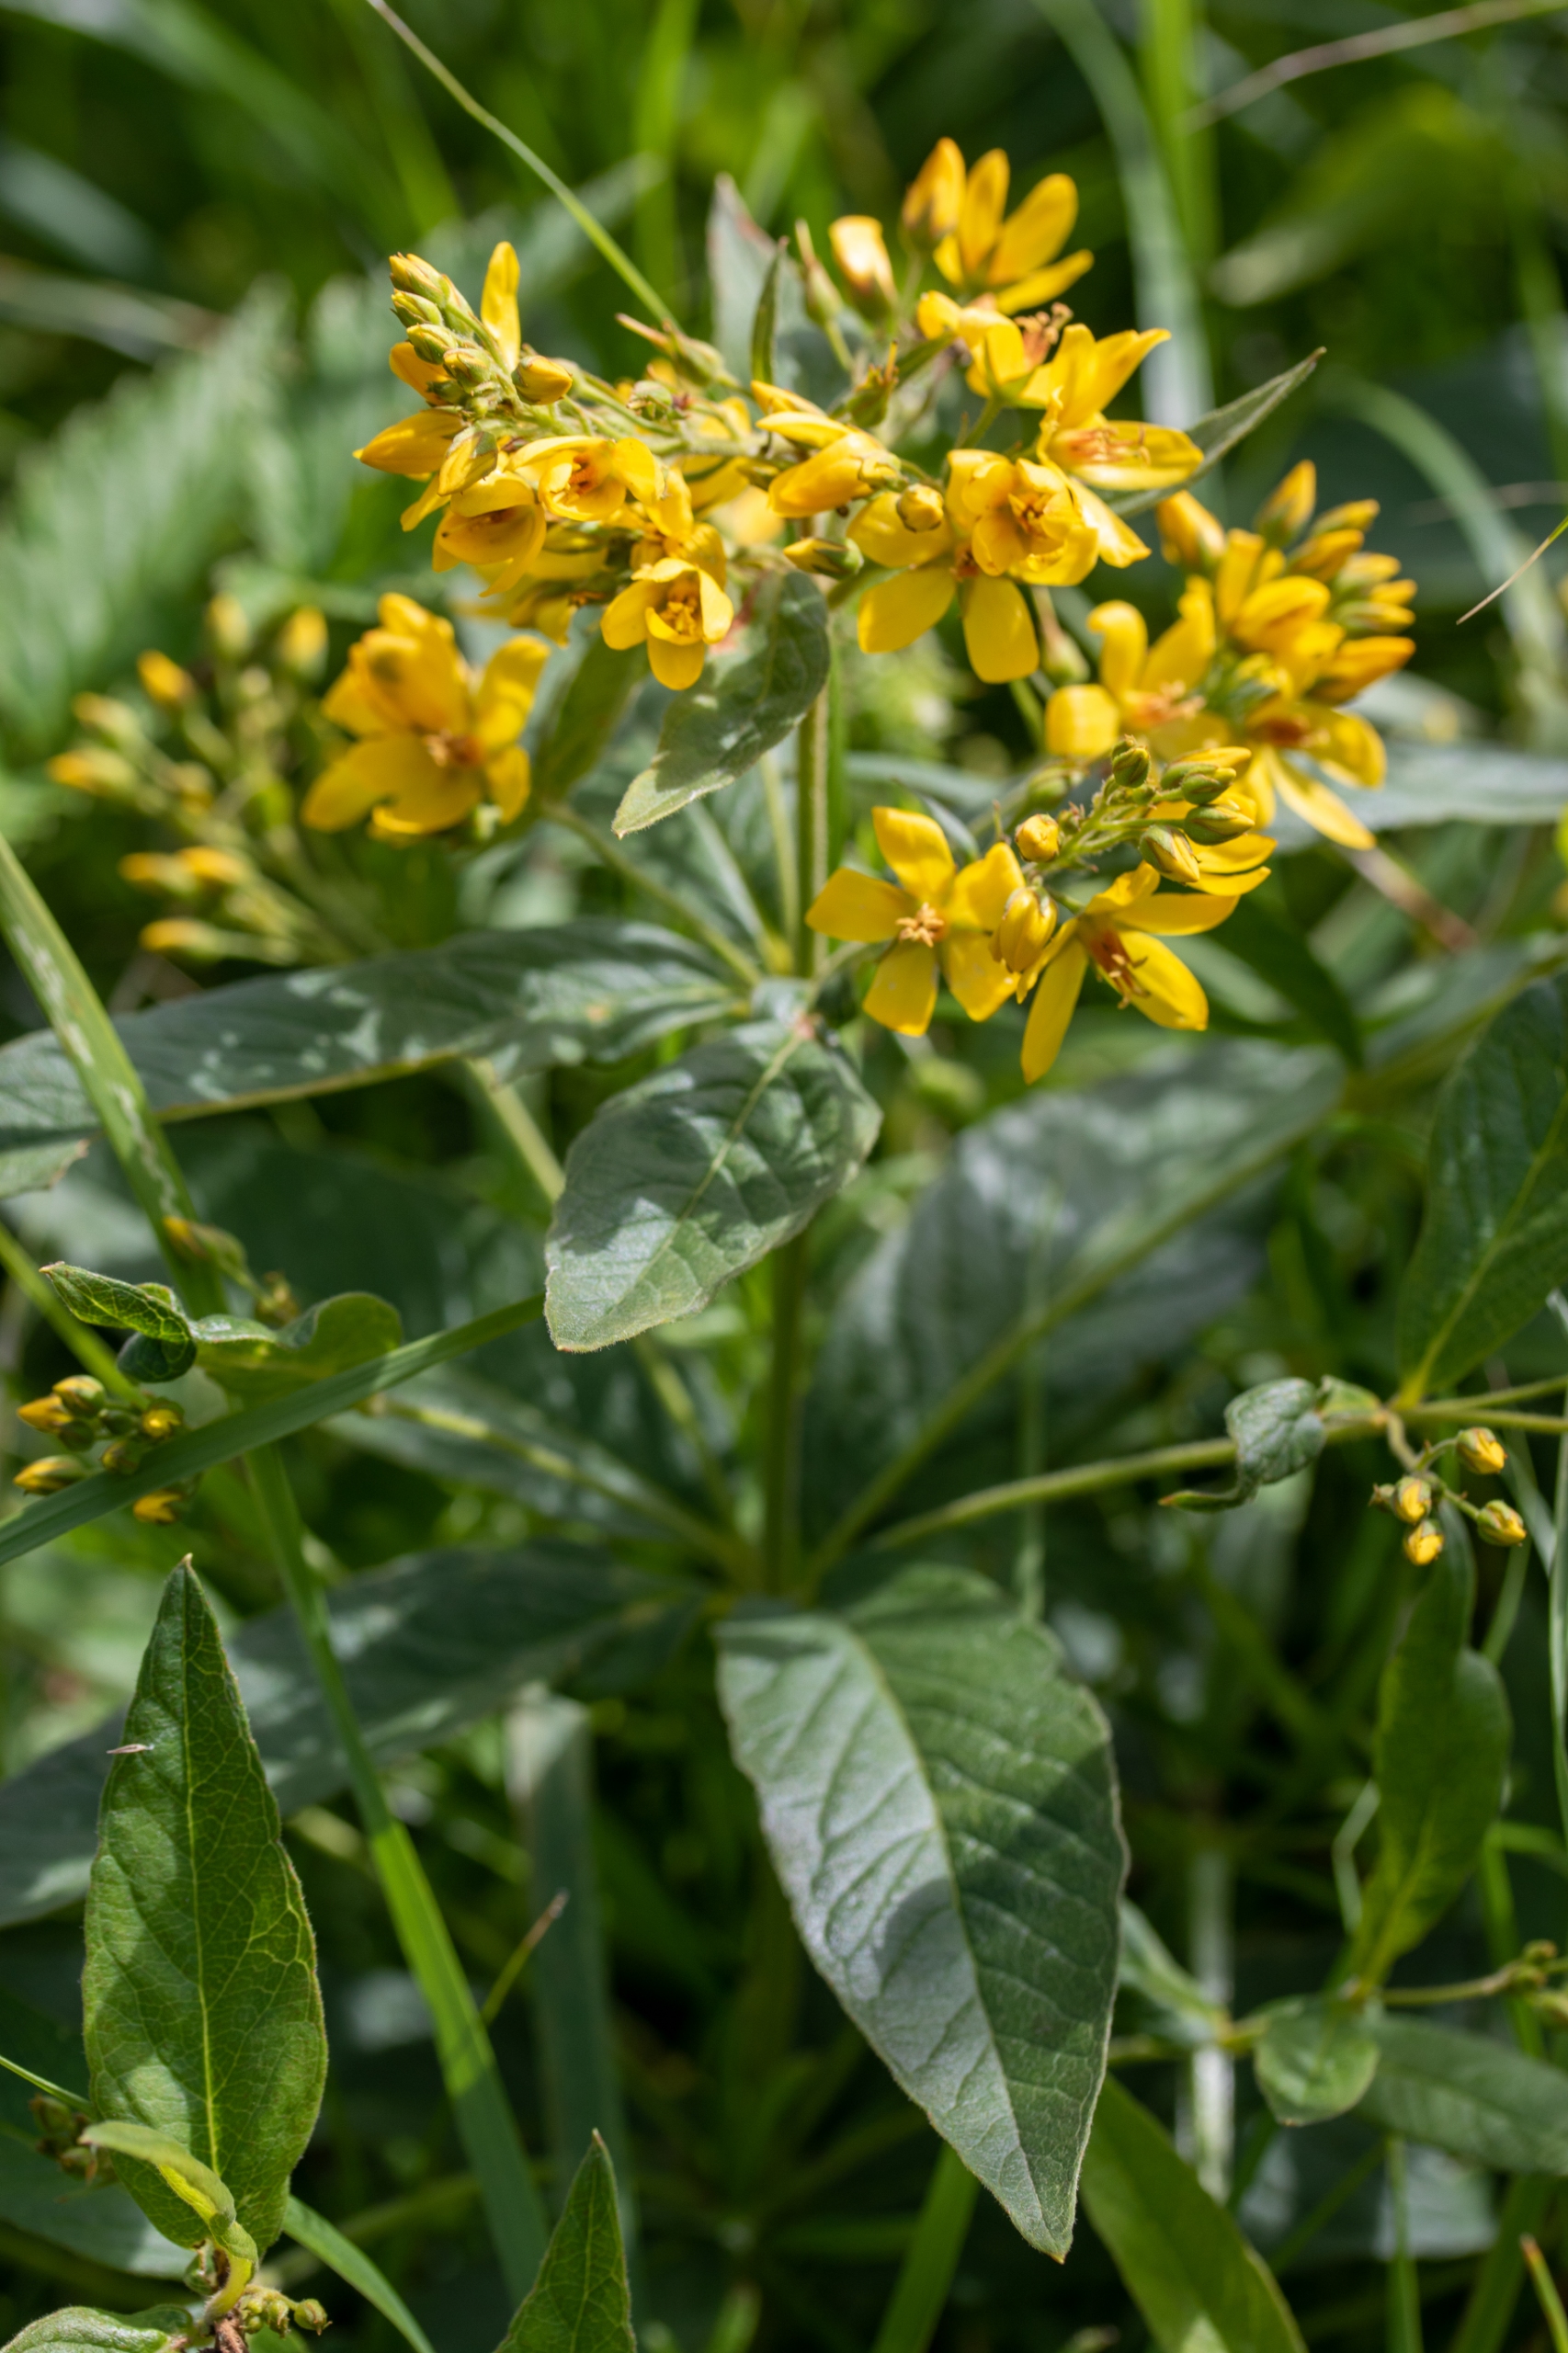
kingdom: Plantae
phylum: Tracheophyta
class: Magnoliopsida
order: Ericales
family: Primulaceae
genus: Lysimachia
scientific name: Lysimachia vulgaris
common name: Almindelig fredløs
